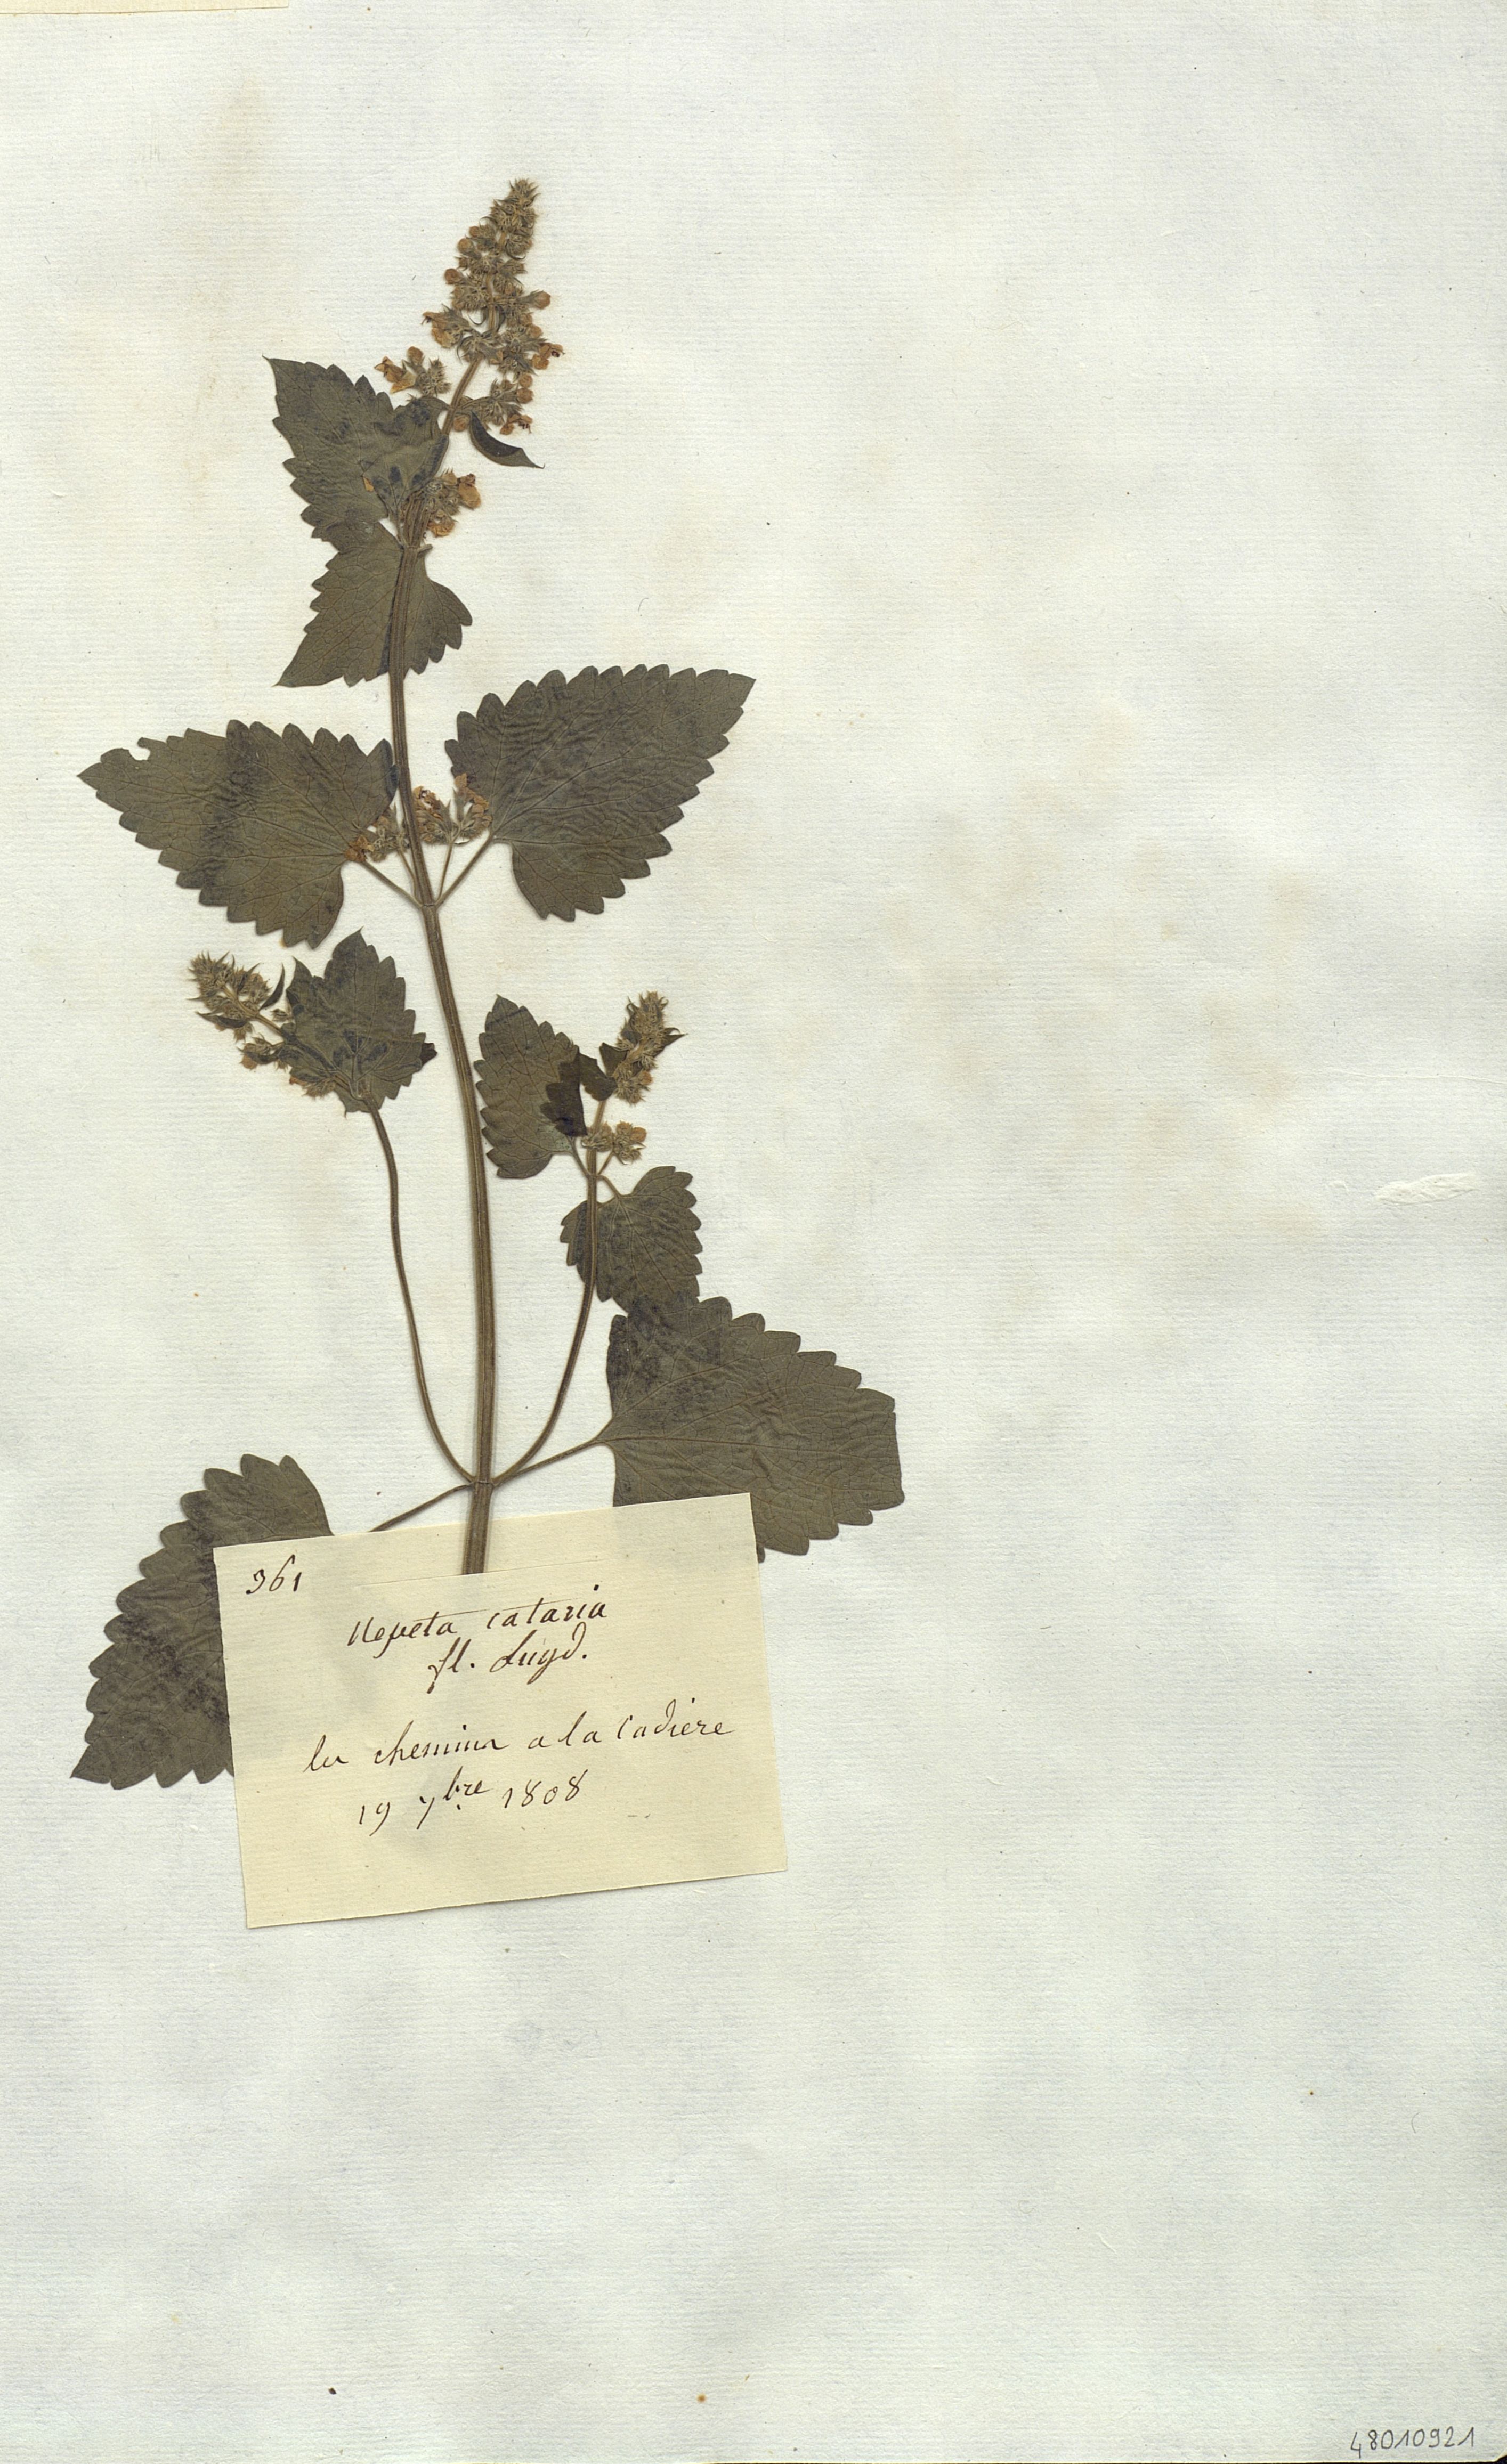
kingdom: Plantae
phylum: Tracheophyta
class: Magnoliopsida
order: Lamiales
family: Lamiaceae
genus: Nepeta
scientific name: Nepeta cataria
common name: Catnip
